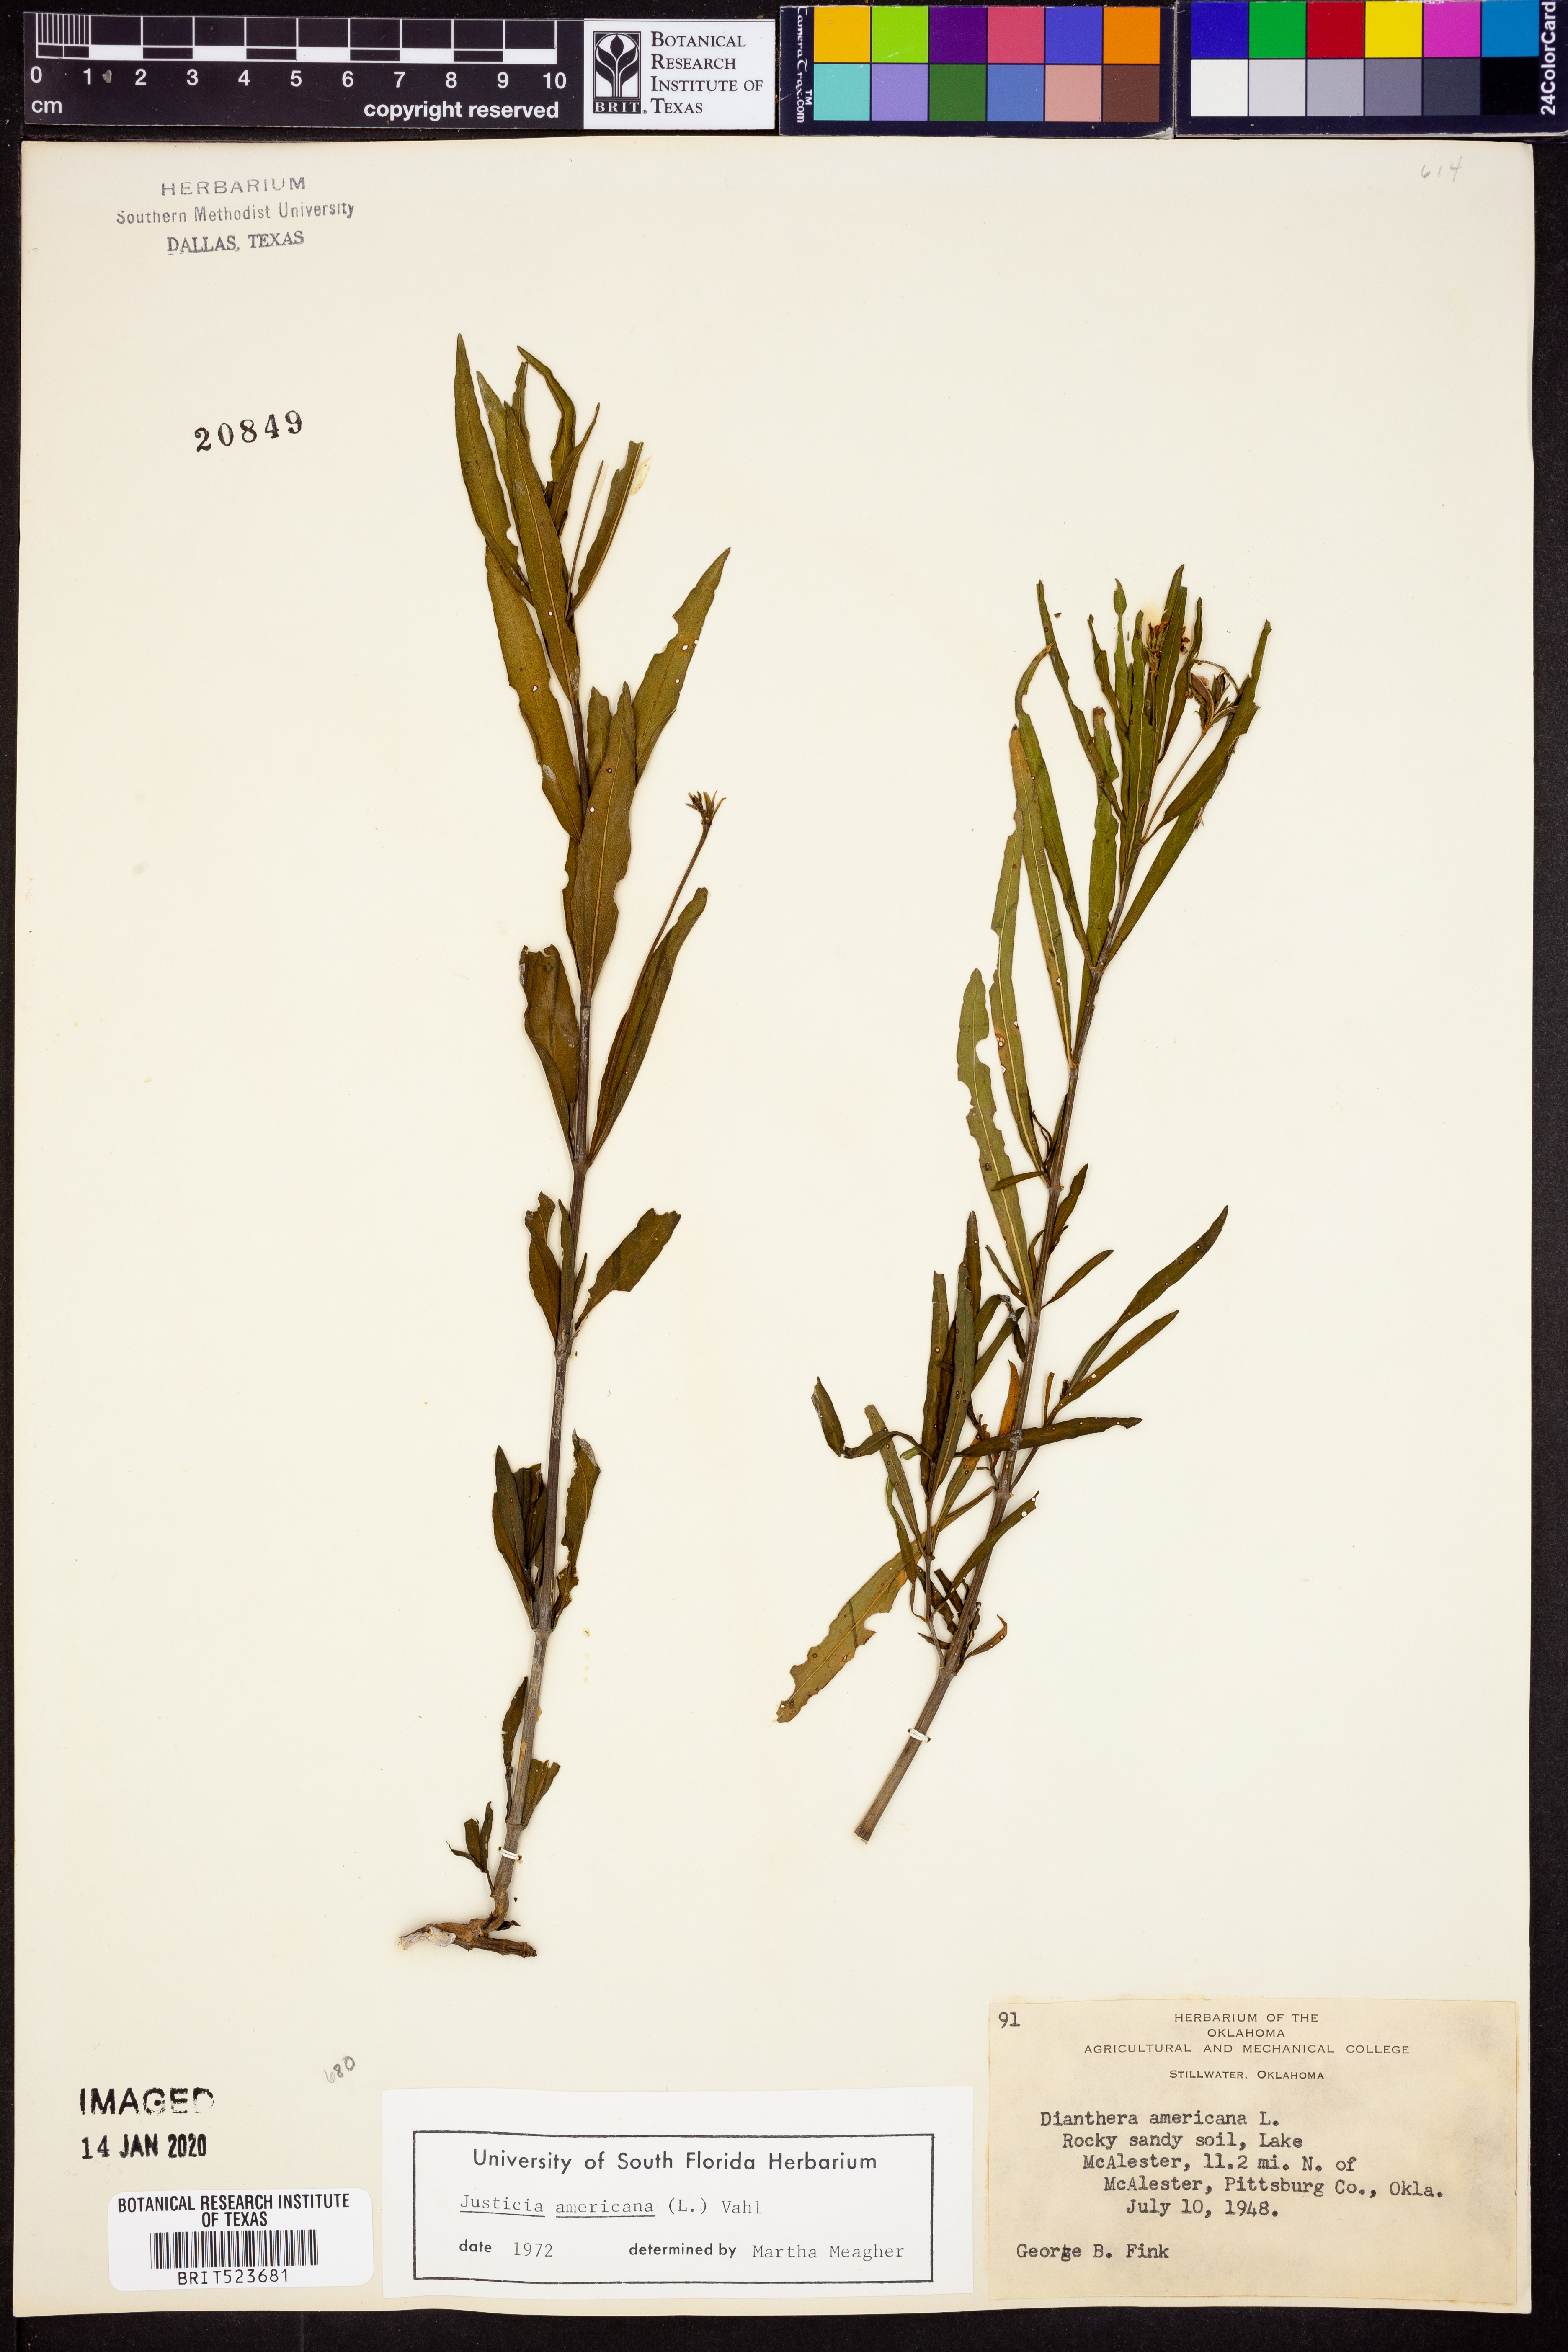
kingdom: Plantae
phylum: Tracheophyta
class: Magnoliopsida
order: Lamiales
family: Acanthaceae
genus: Dianthera
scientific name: Dianthera americana
